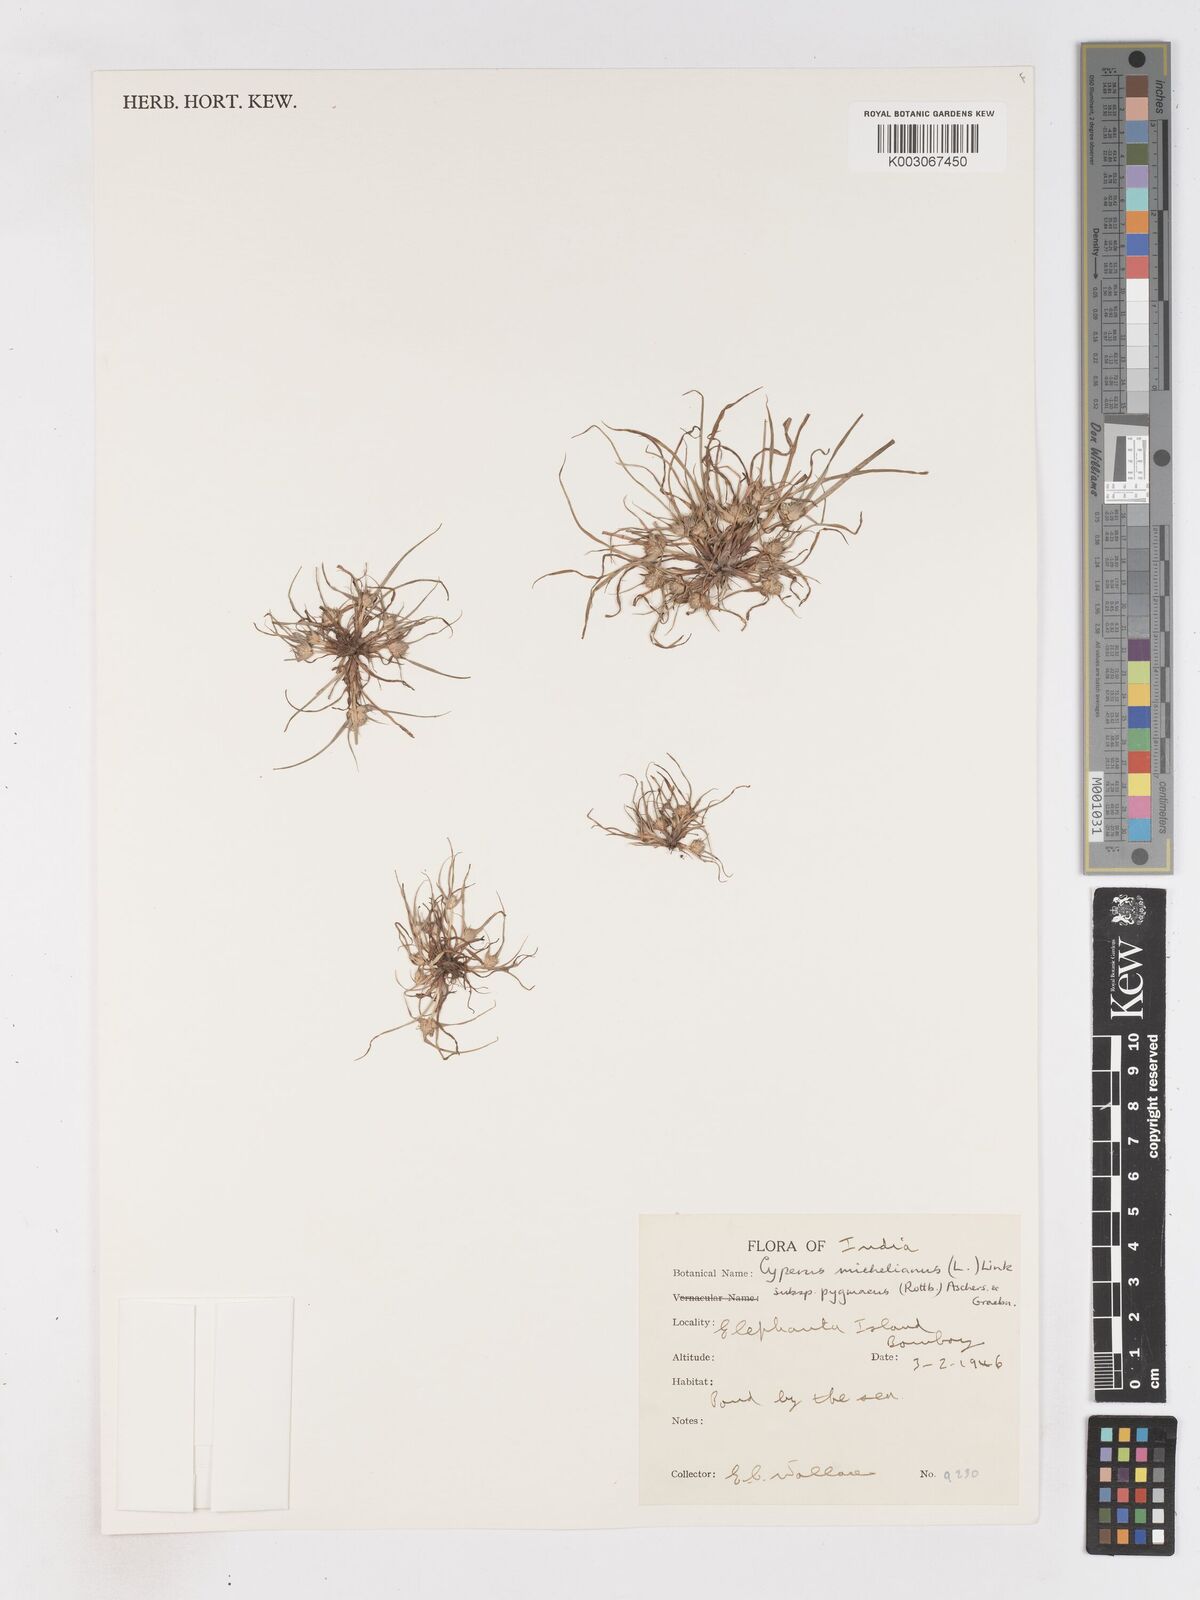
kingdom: Plantae
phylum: Tracheophyta
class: Liliopsida
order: Poales
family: Cyperaceae
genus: Cyperus
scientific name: Cyperus michelianus
